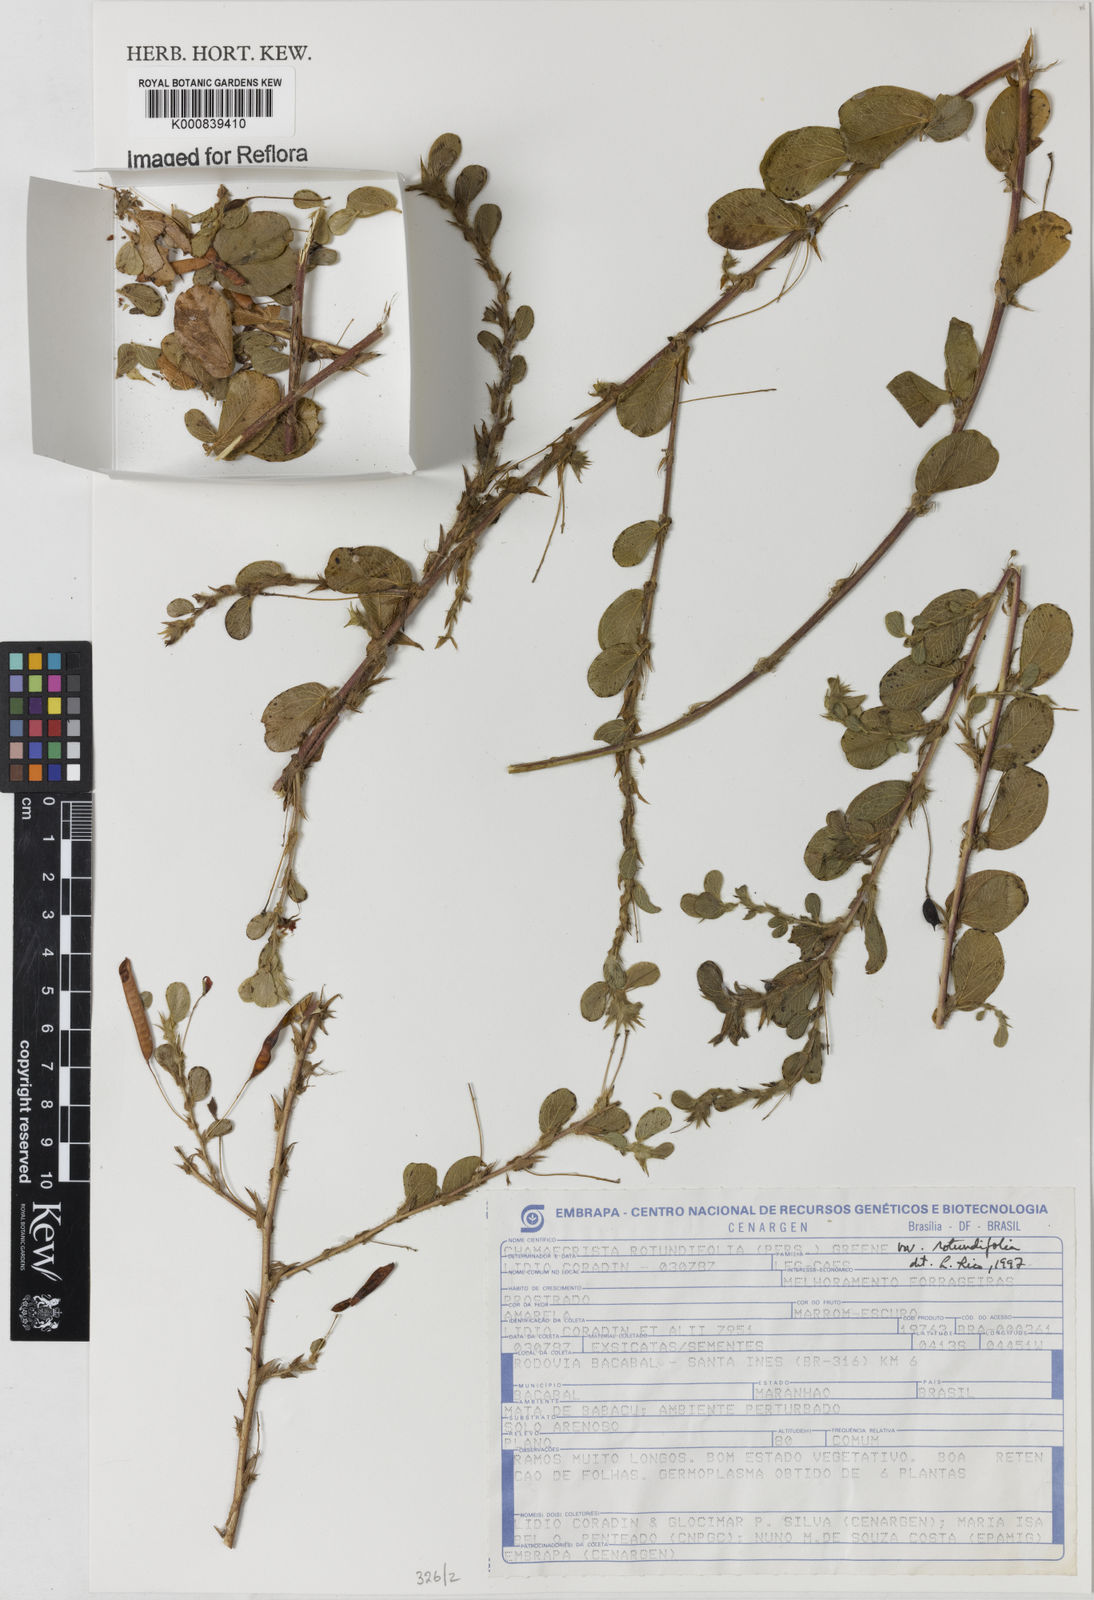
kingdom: Plantae
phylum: Tracheophyta
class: Magnoliopsida
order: Fabales
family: Fabaceae
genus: Chamaecrista
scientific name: Chamaecrista rotundifolia
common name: Round-leaf cassia
